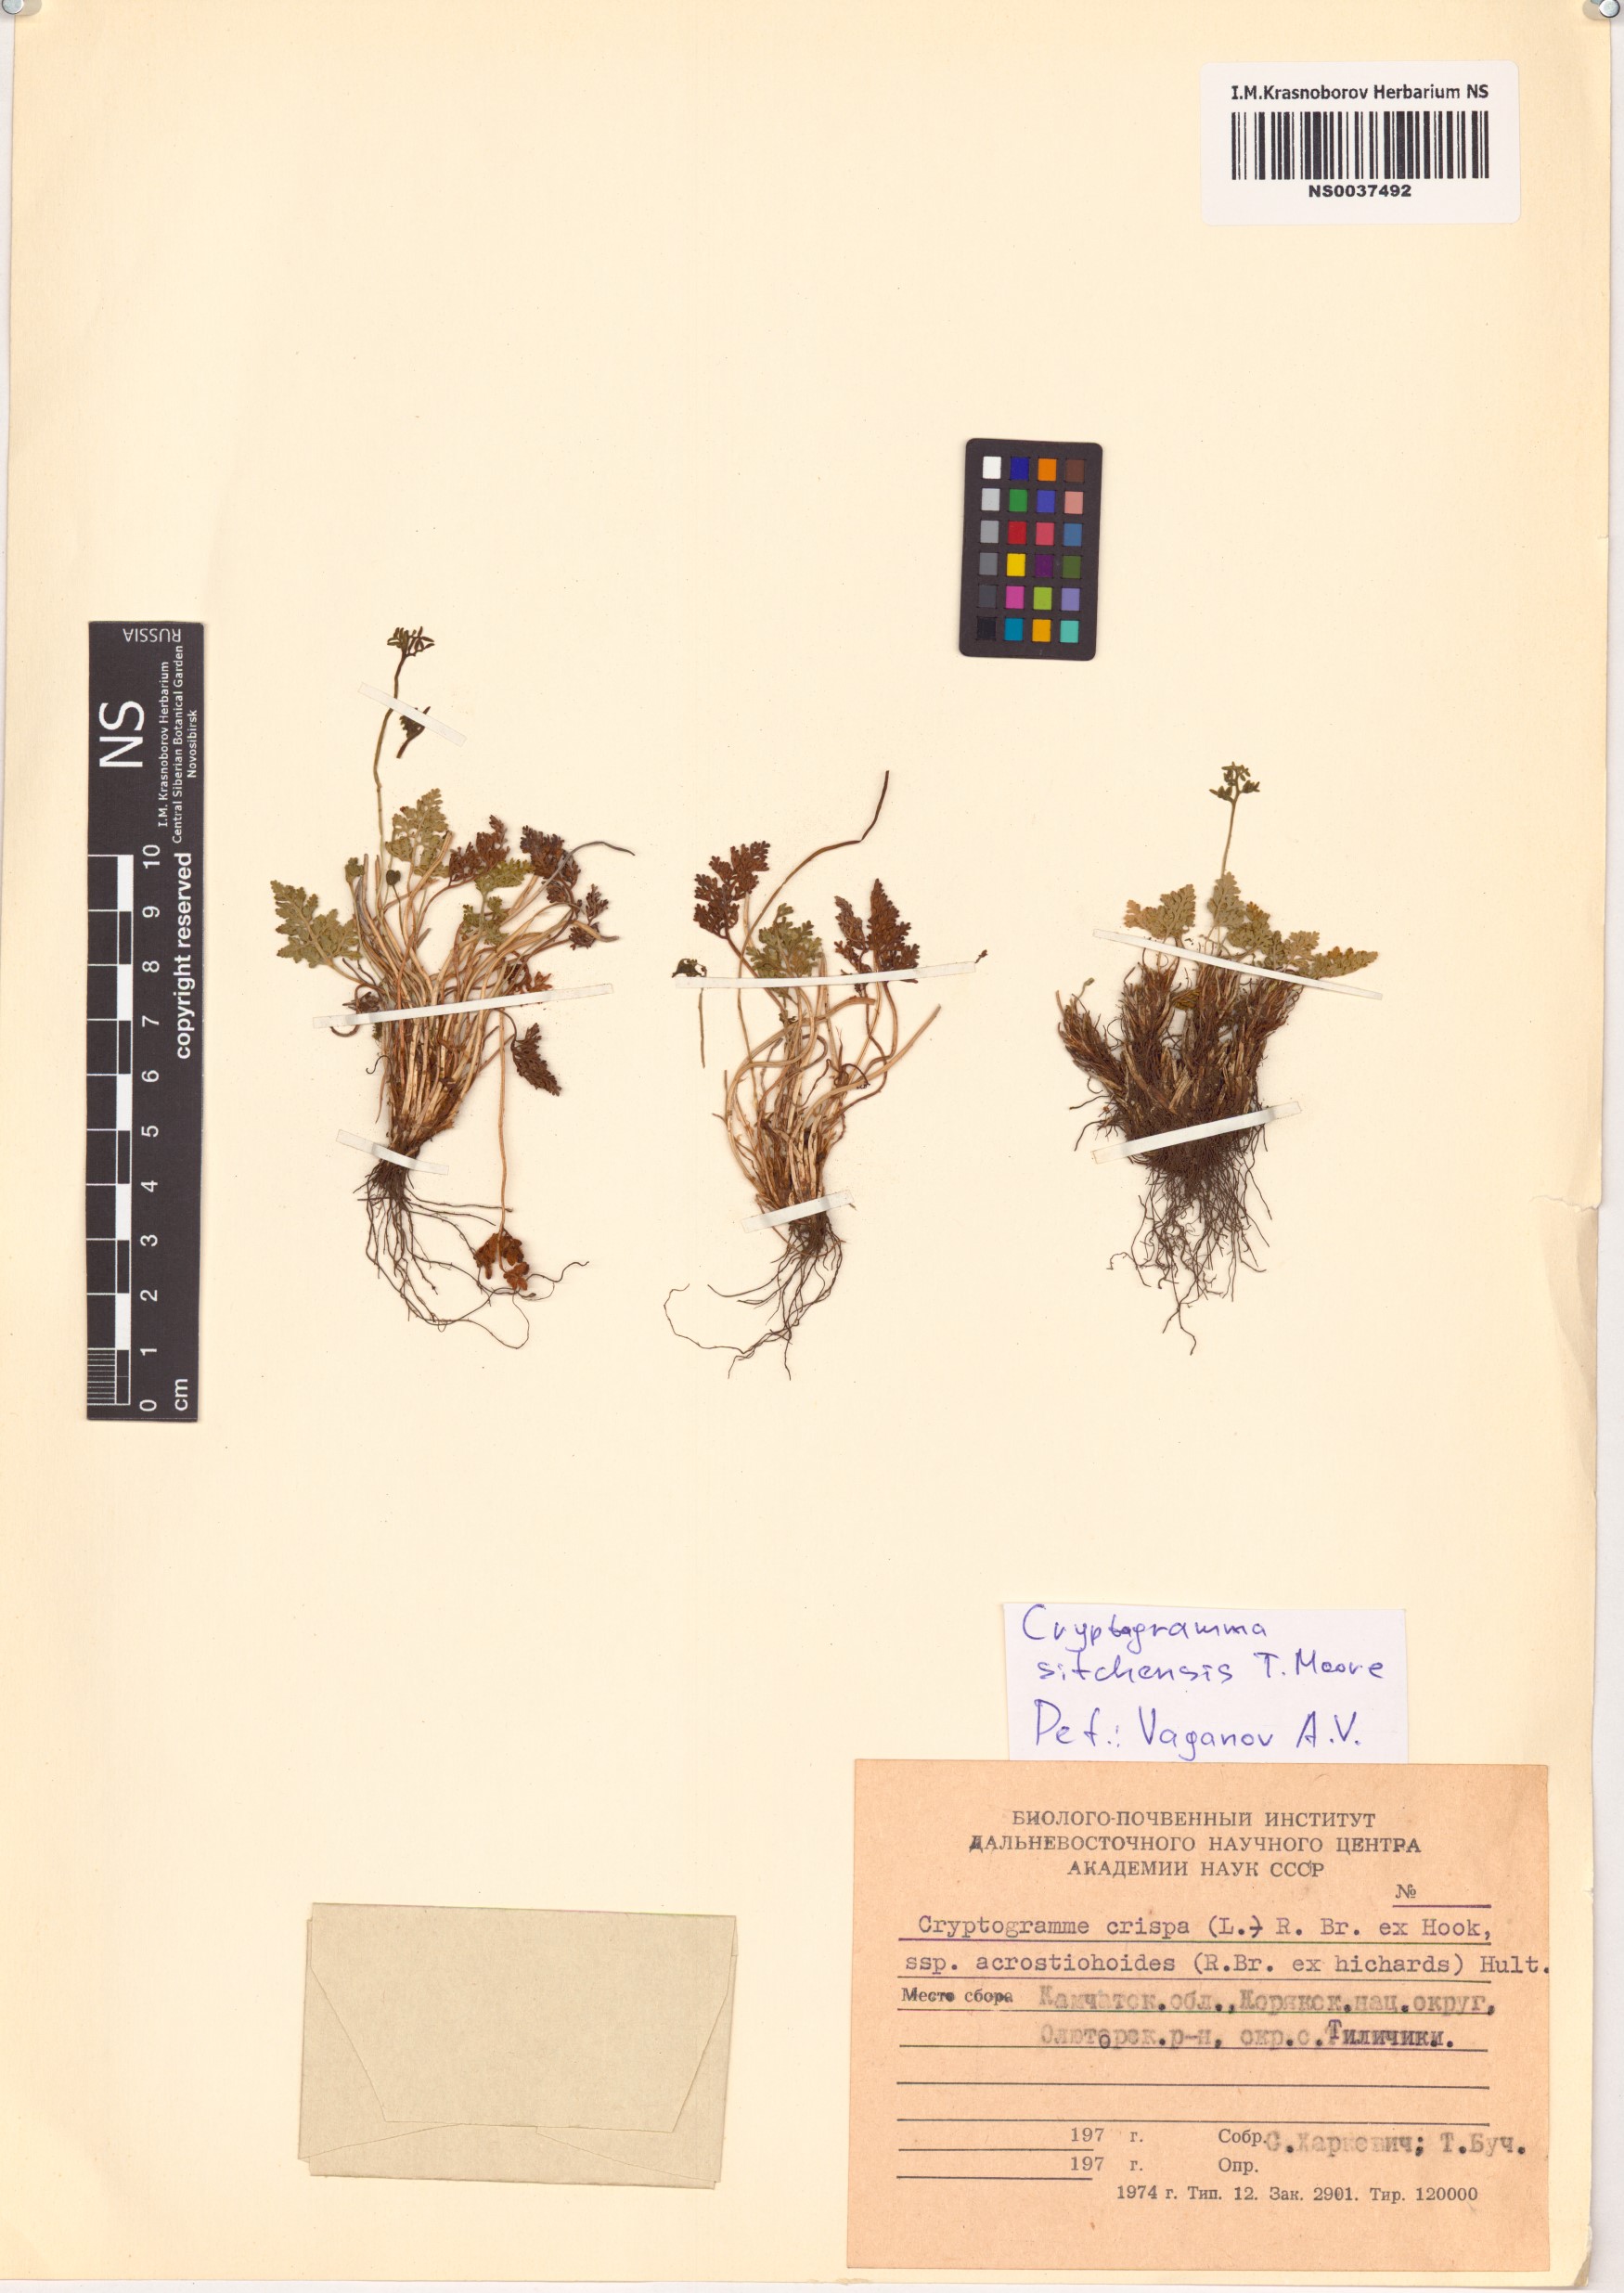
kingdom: Plantae
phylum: Tracheophyta
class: Polypodiopsida
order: Polypodiales
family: Pteridaceae
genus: Cryptogramma
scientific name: Cryptogramma sitchensis
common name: Alaska parsley fern
